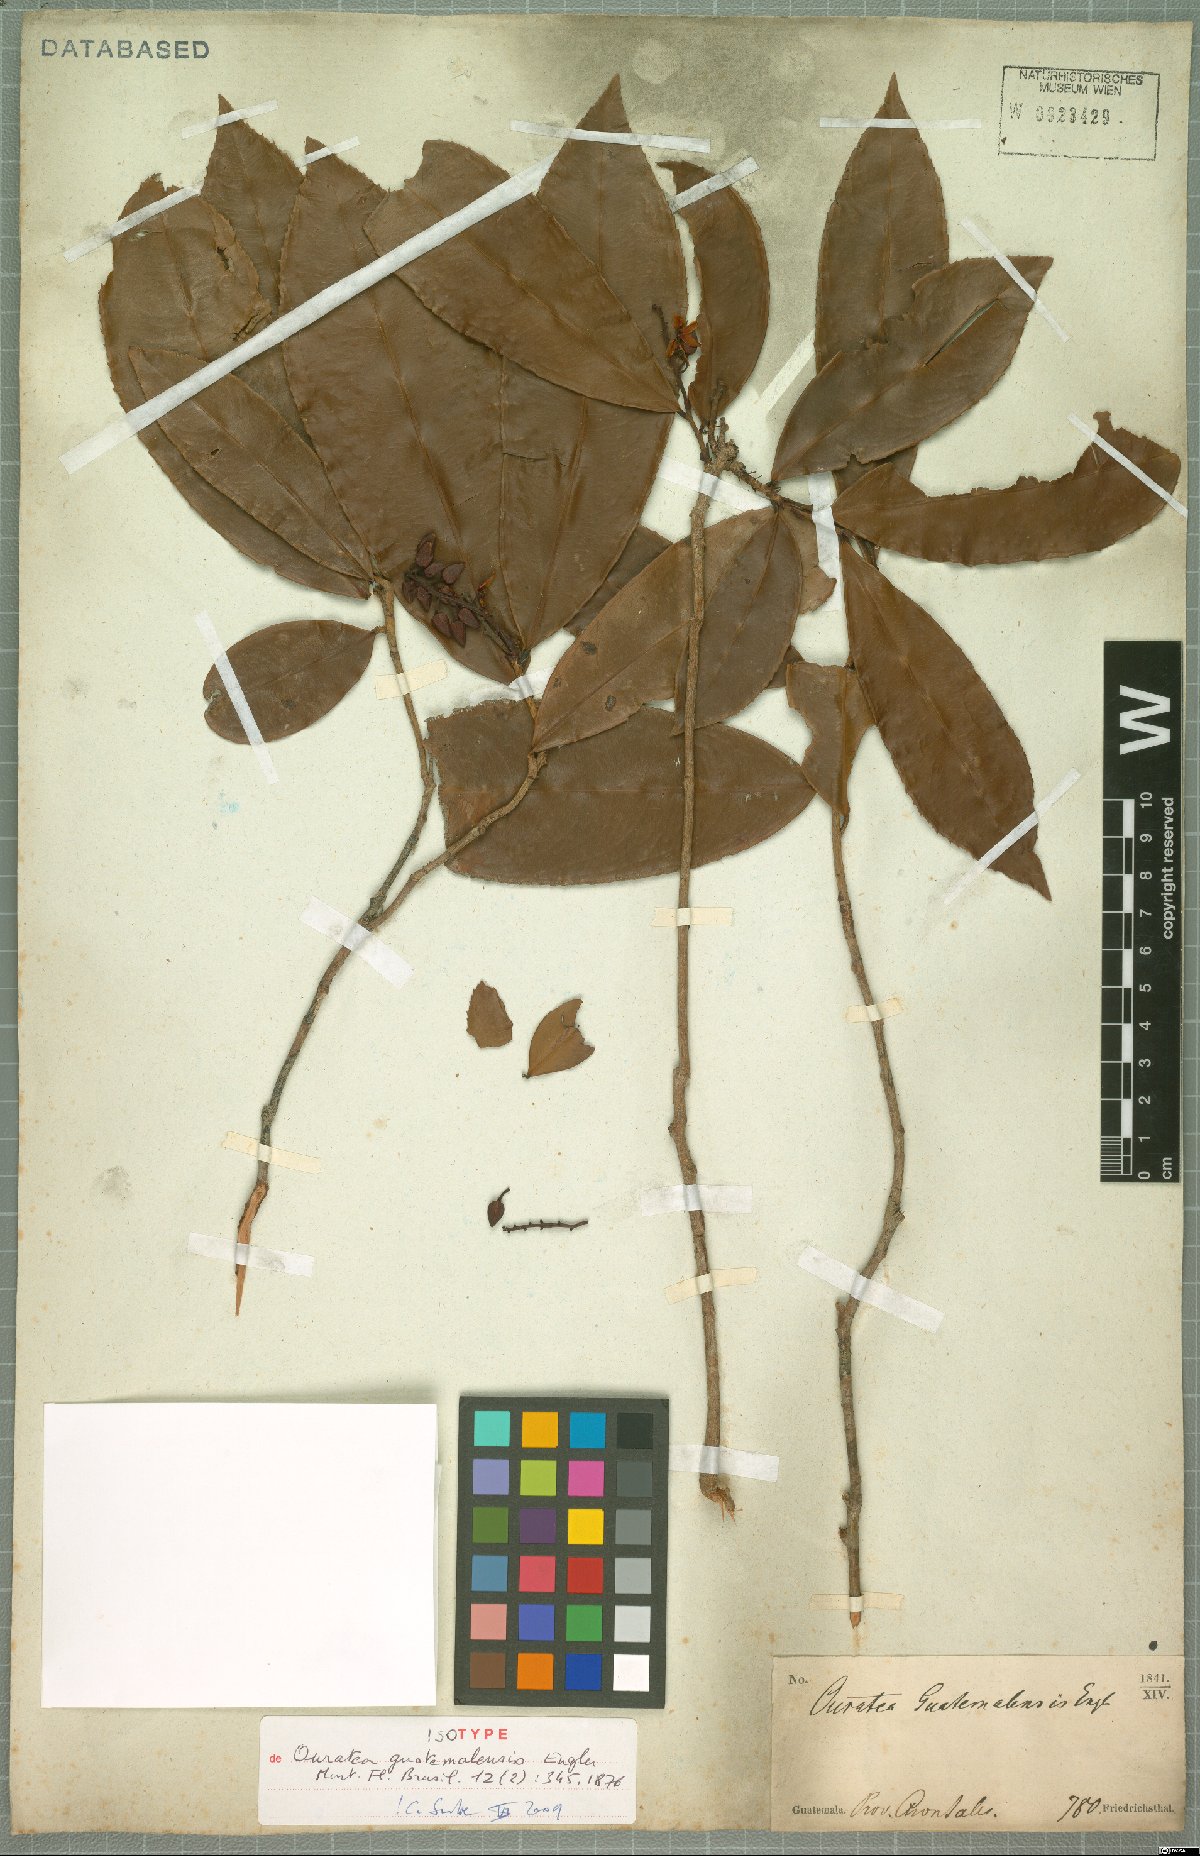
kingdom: Plantae
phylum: Tracheophyta
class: Magnoliopsida
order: Malpighiales
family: Ochnaceae
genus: Ouratea
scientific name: Ouratea lucens
